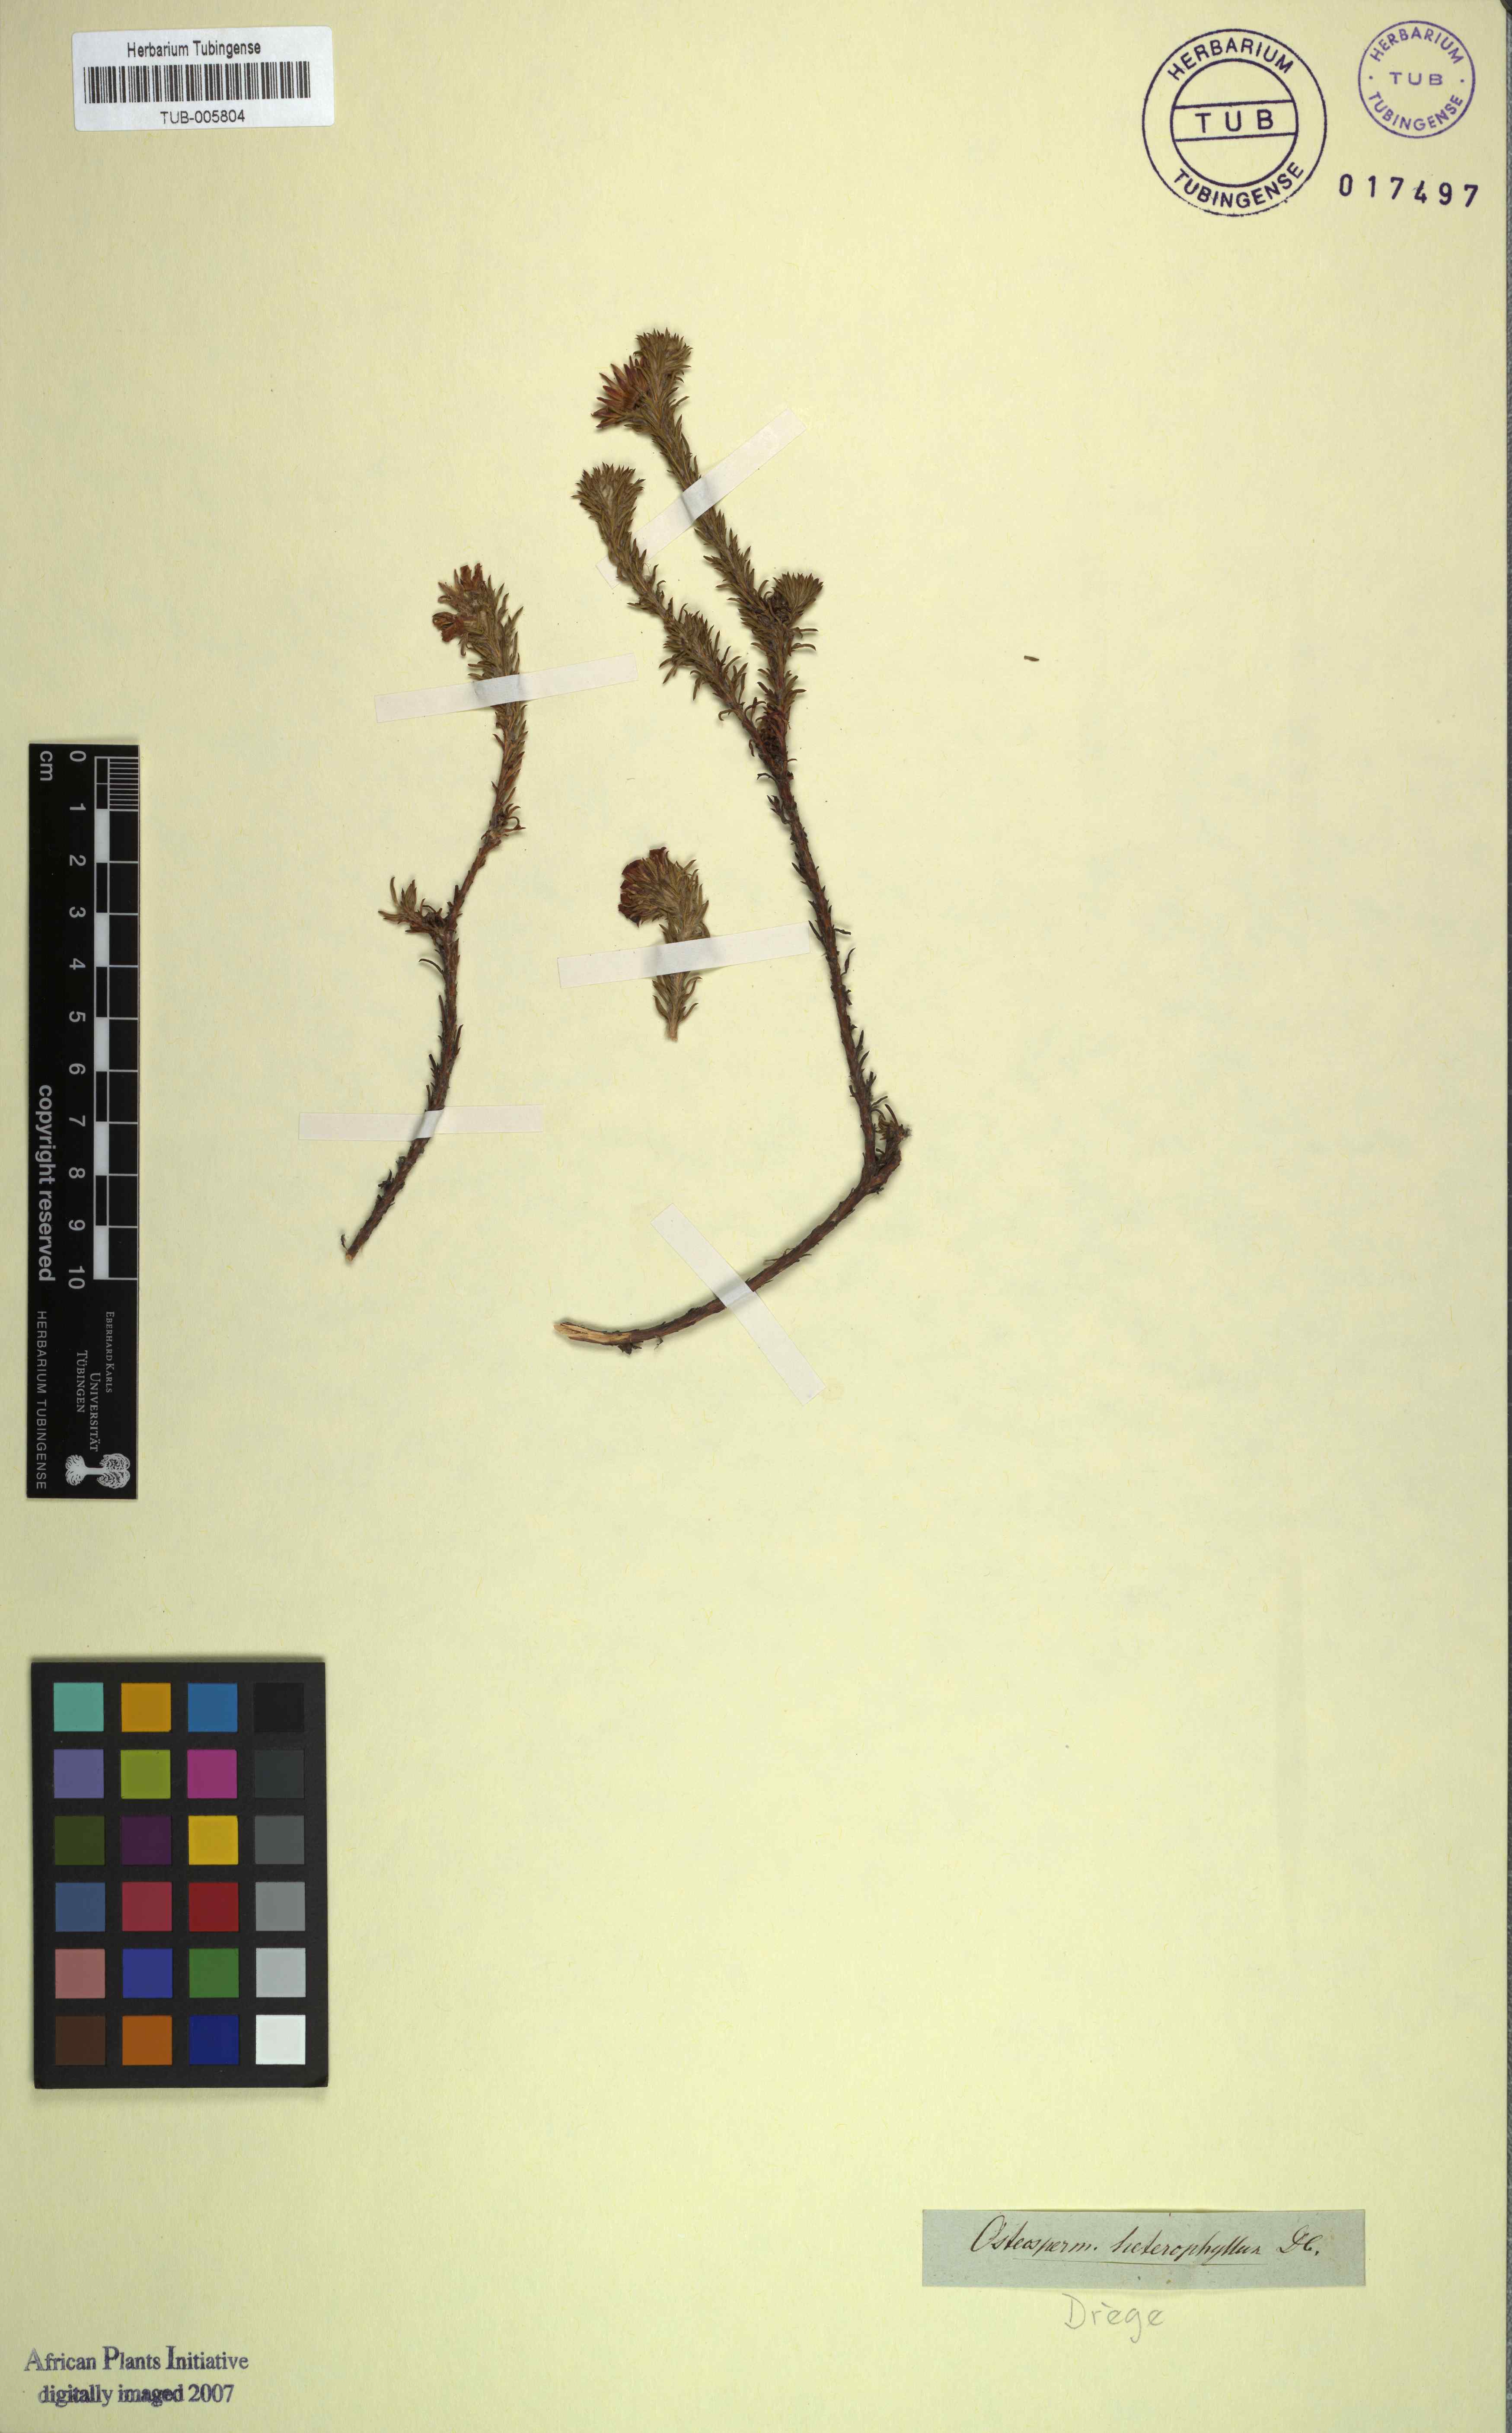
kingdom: Plantae
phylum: Tracheophyta
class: Magnoliopsida
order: Asterales
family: Asteraceae
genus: Euryops
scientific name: Euryops brachypodus
